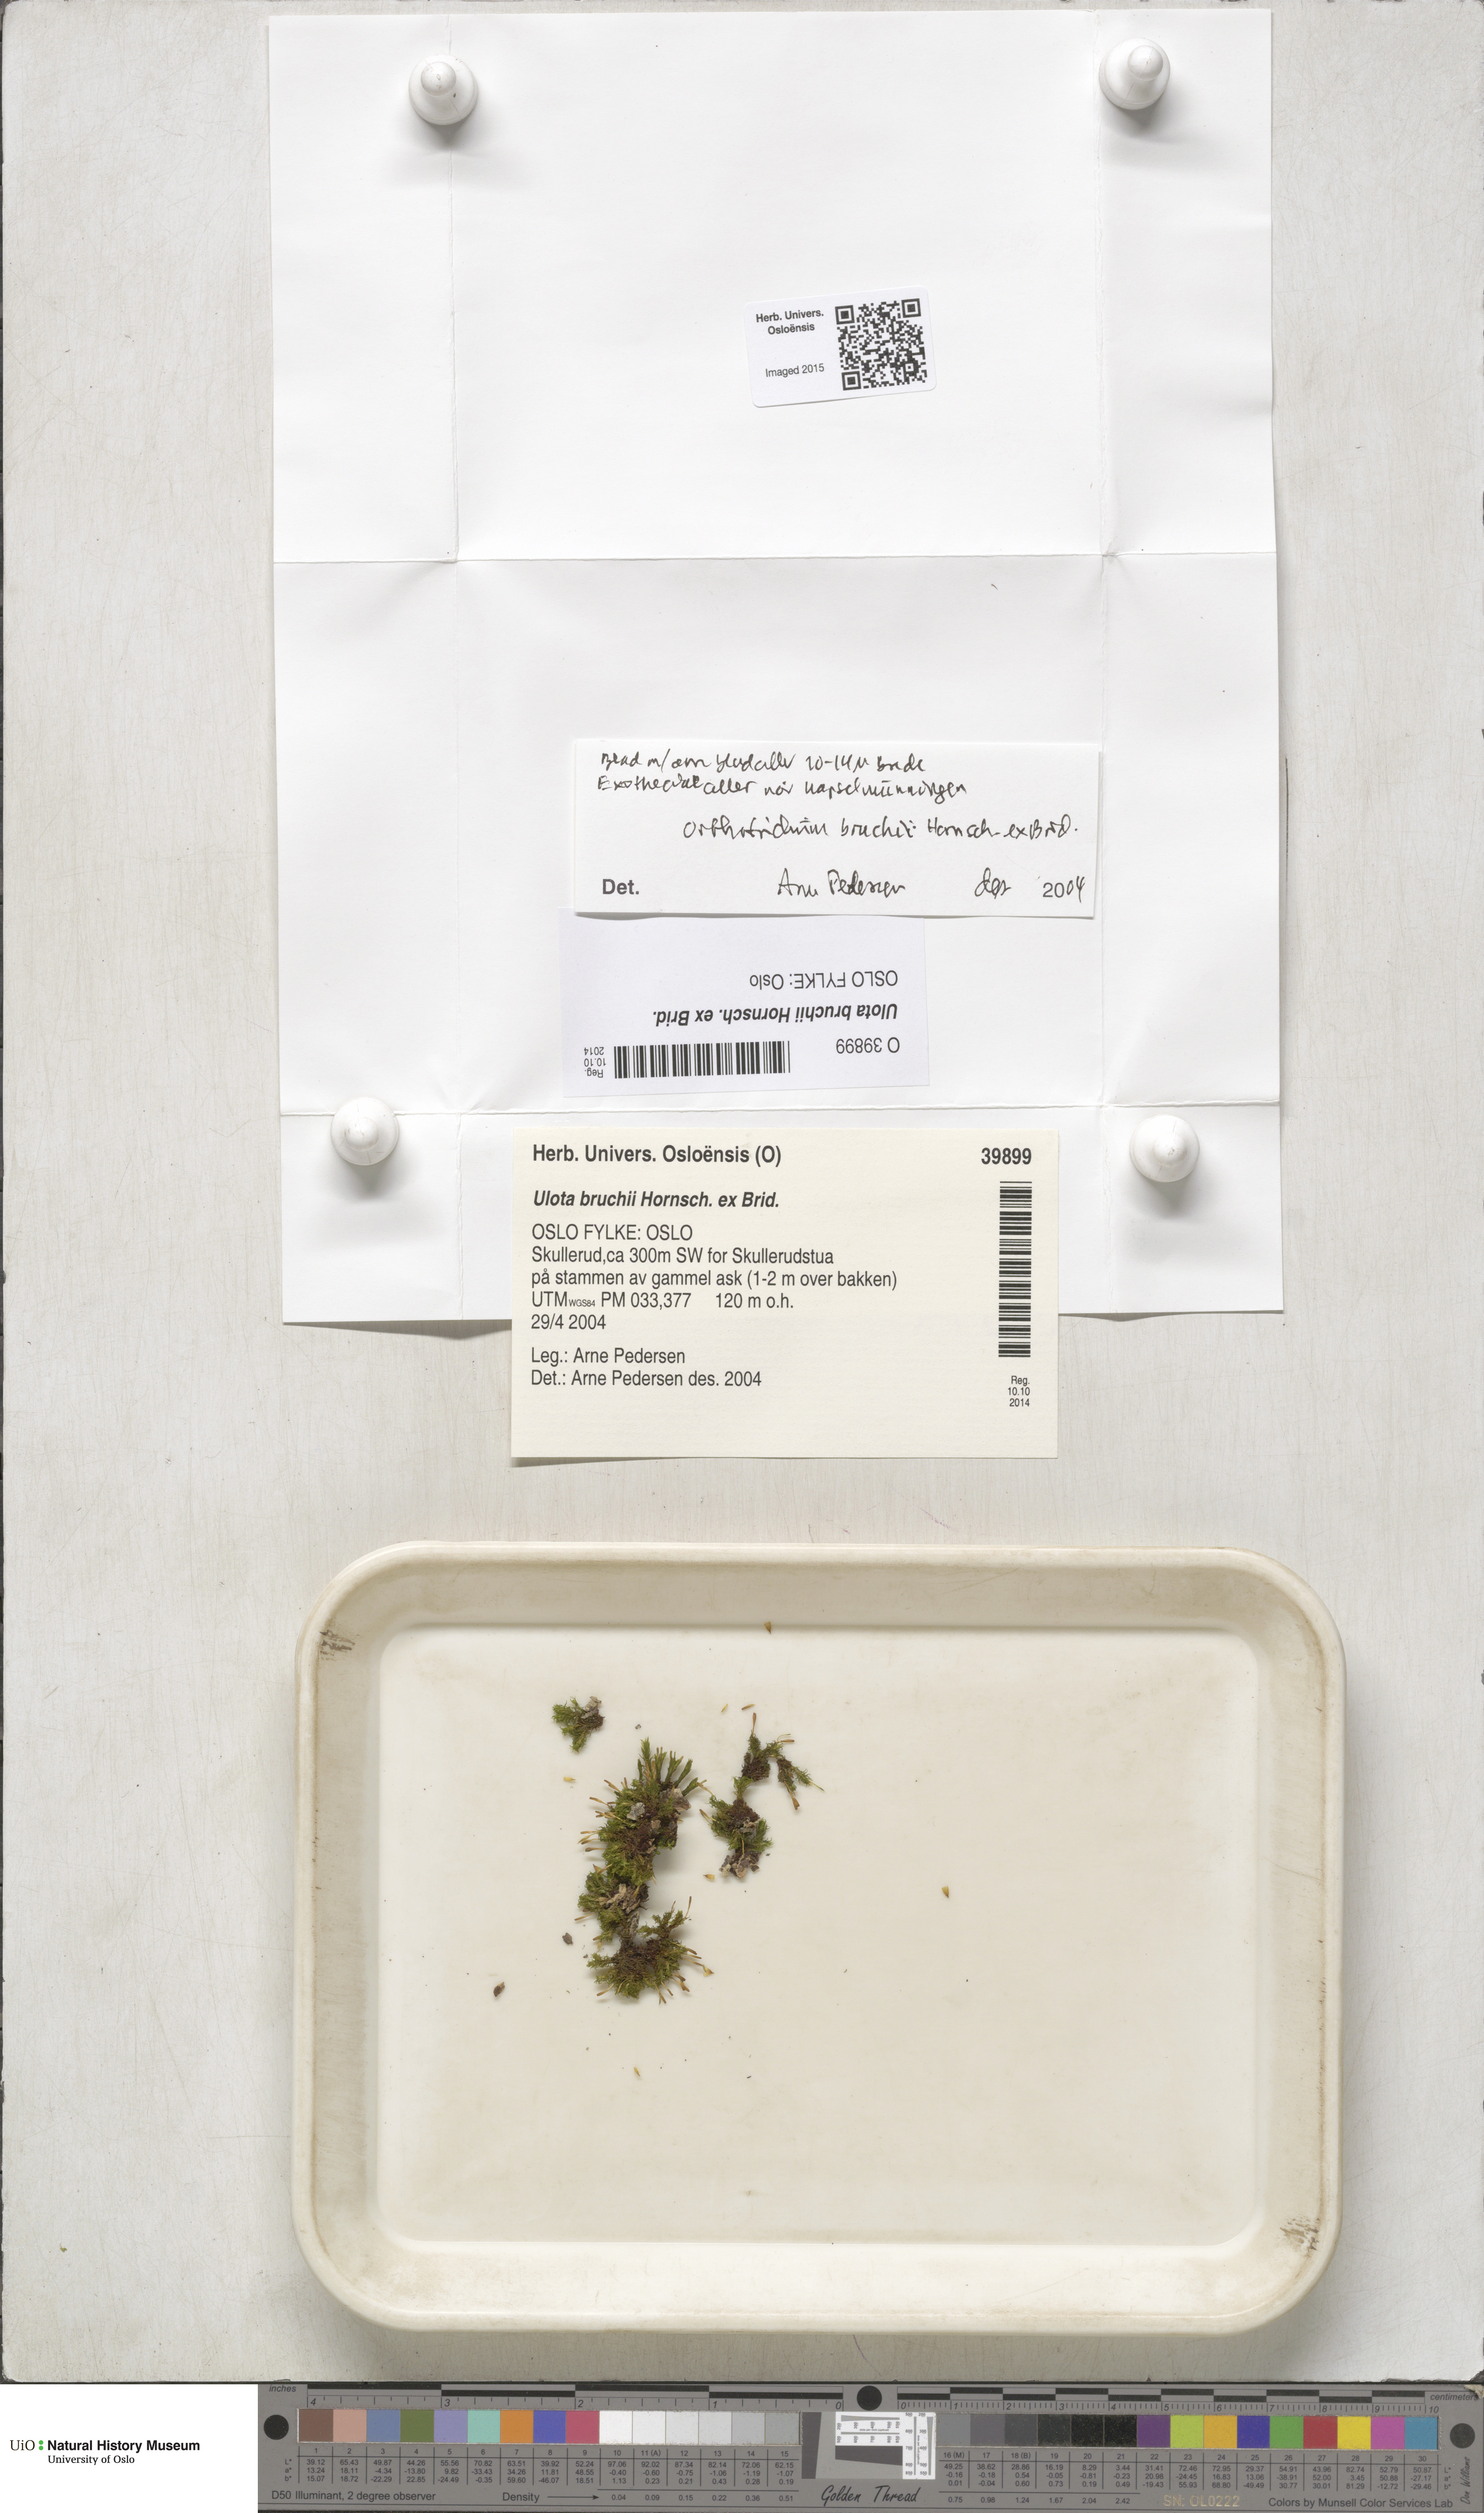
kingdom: Plantae
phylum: Bryophyta
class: Bryopsida
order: Orthotrichales
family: Orthotrichaceae
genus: Ulota
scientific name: Ulota bruchii
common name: Bruch's pincushion
